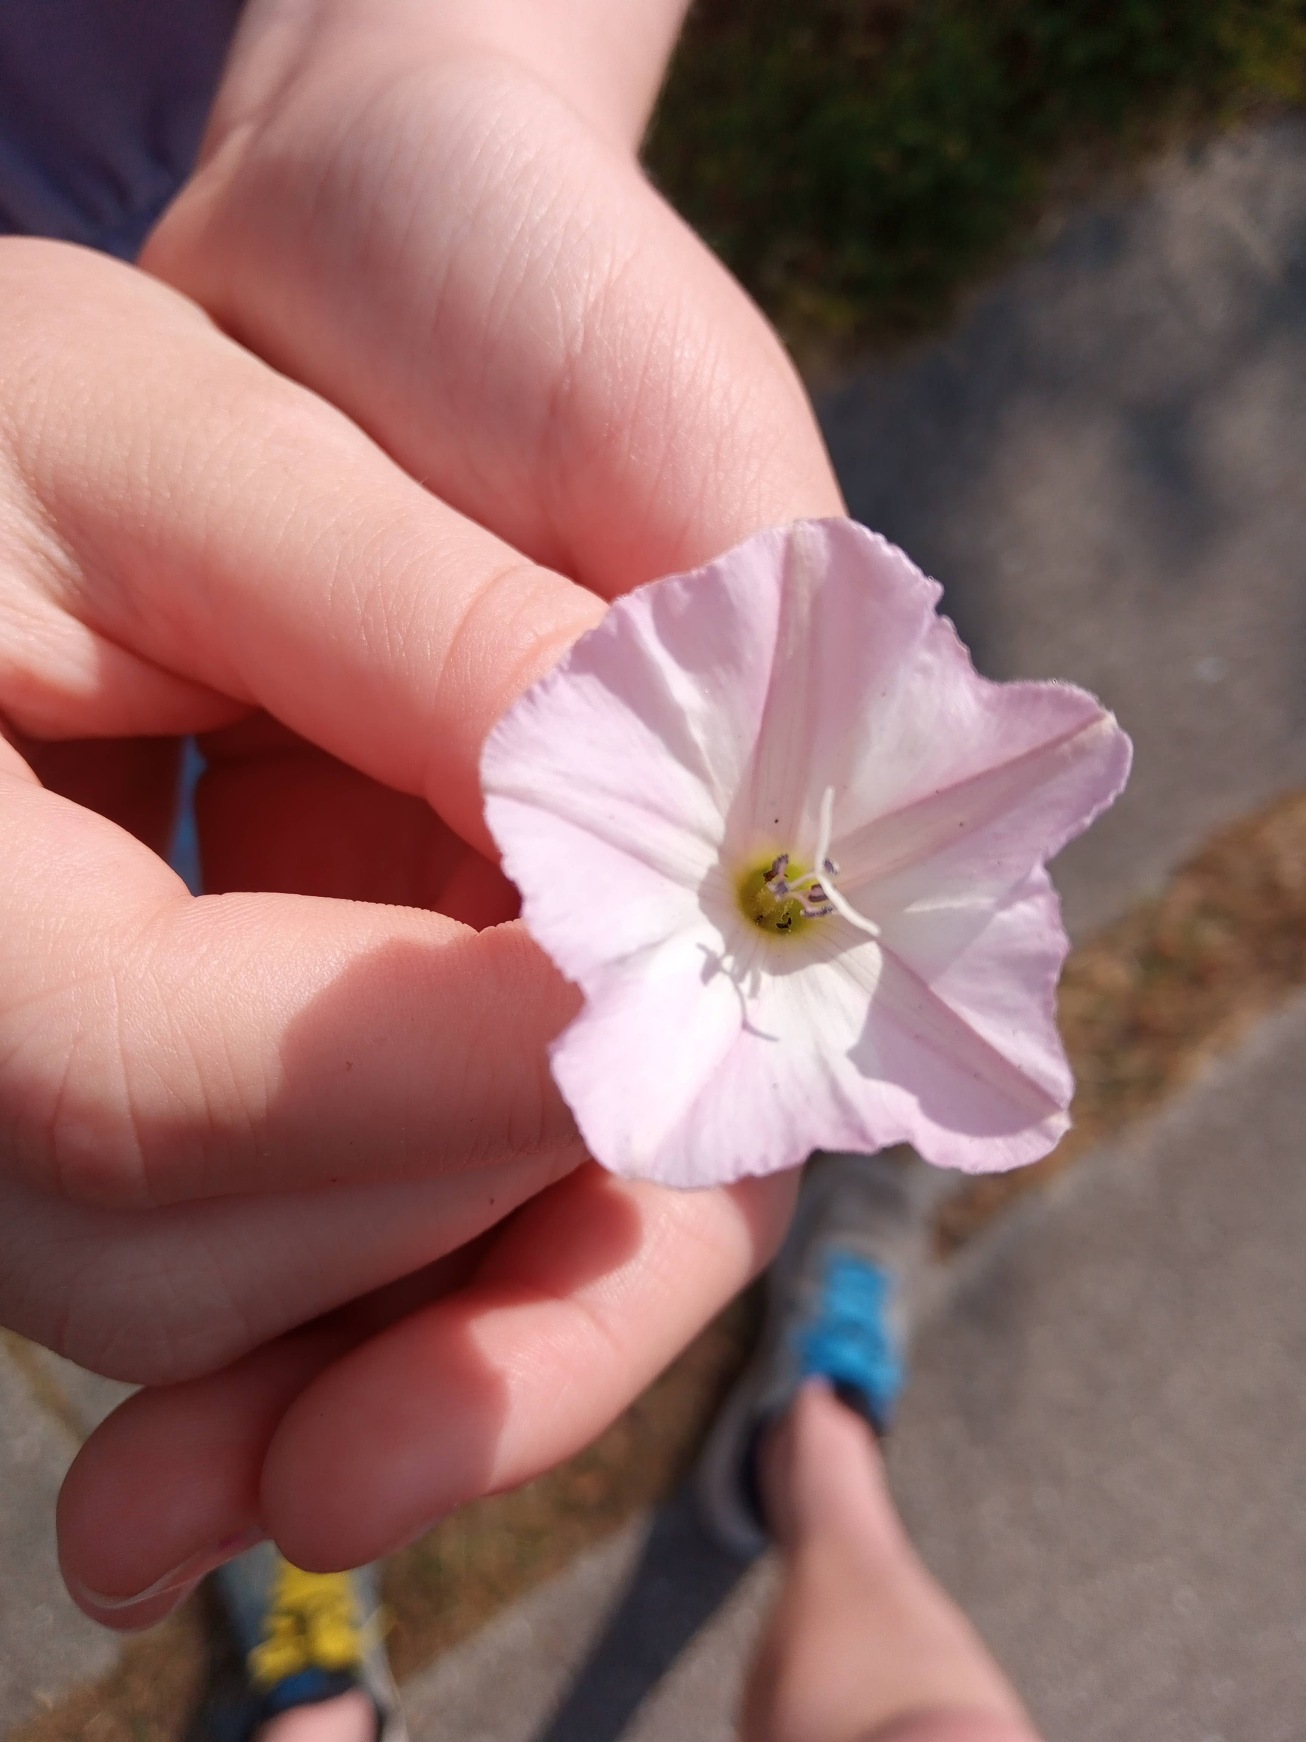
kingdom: Plantae
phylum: Tracheophyta
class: Magnoliopsida
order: Solanales
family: Convolvulaceae
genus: Convolvulus
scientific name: Convolvulus arvensis
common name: Ager-snerle
